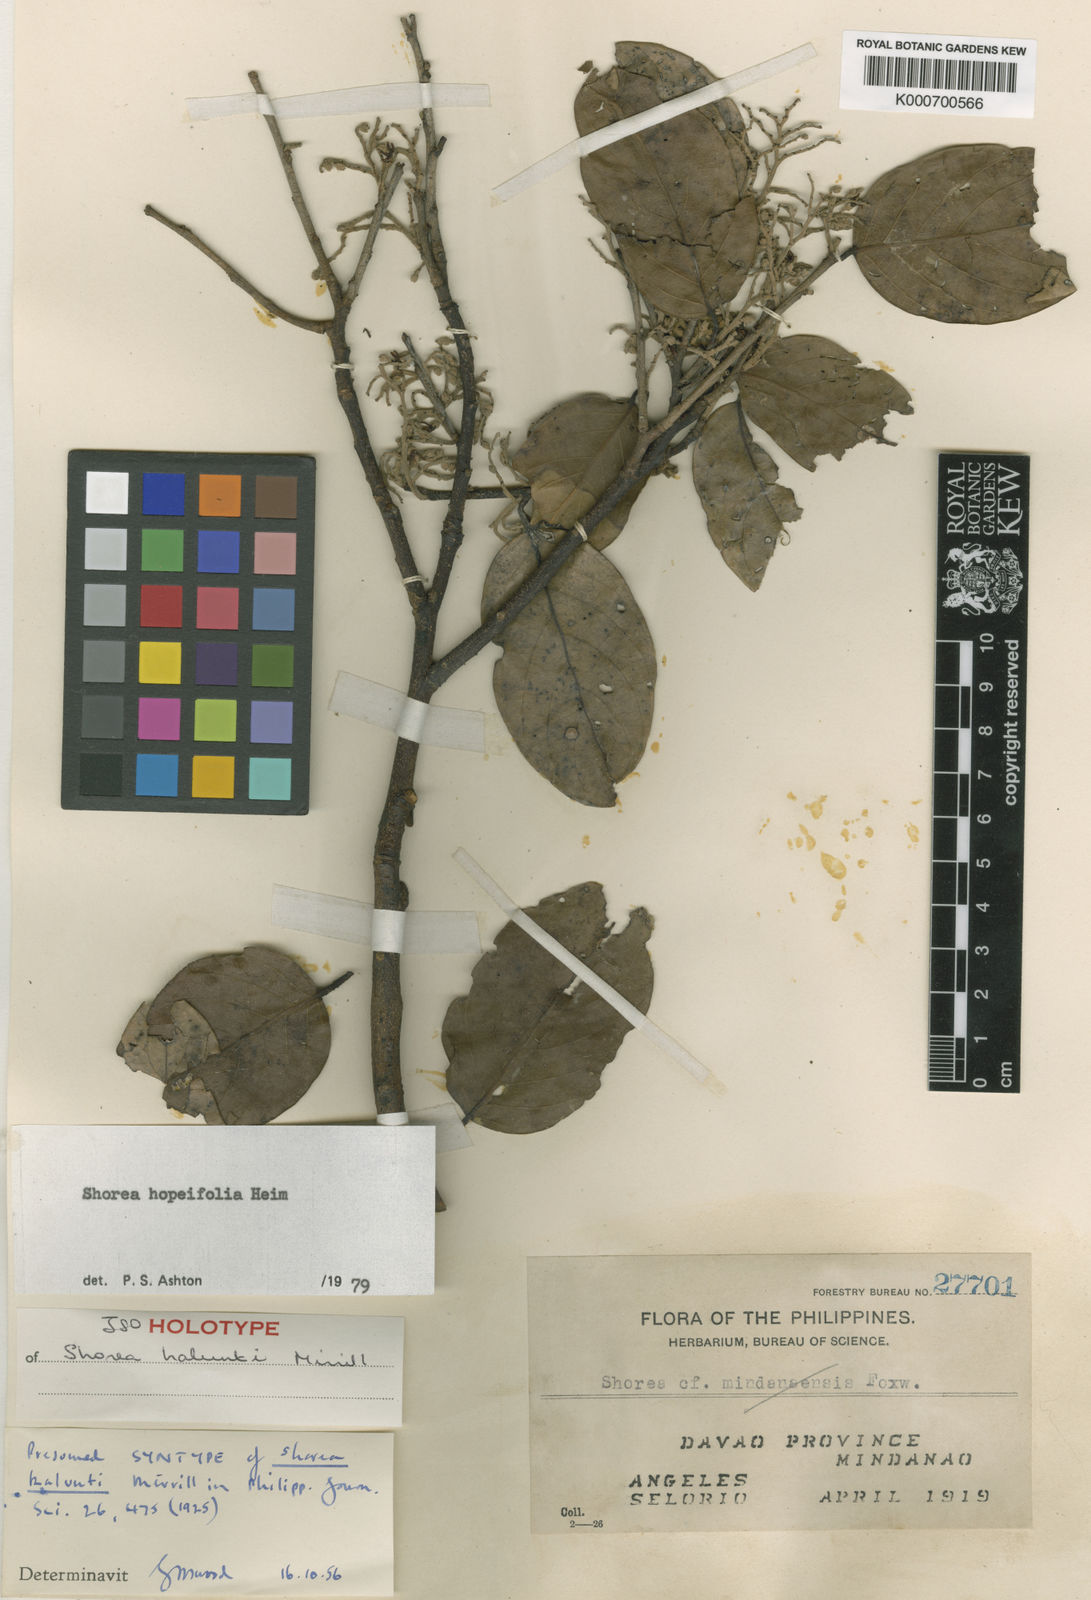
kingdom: Plantae
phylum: Tracheophyta
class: Magnoliopsida
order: Malvales
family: Dipterocarpaceae
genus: Shorea
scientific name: Shorea hopeifolia
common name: Yellow meranti
